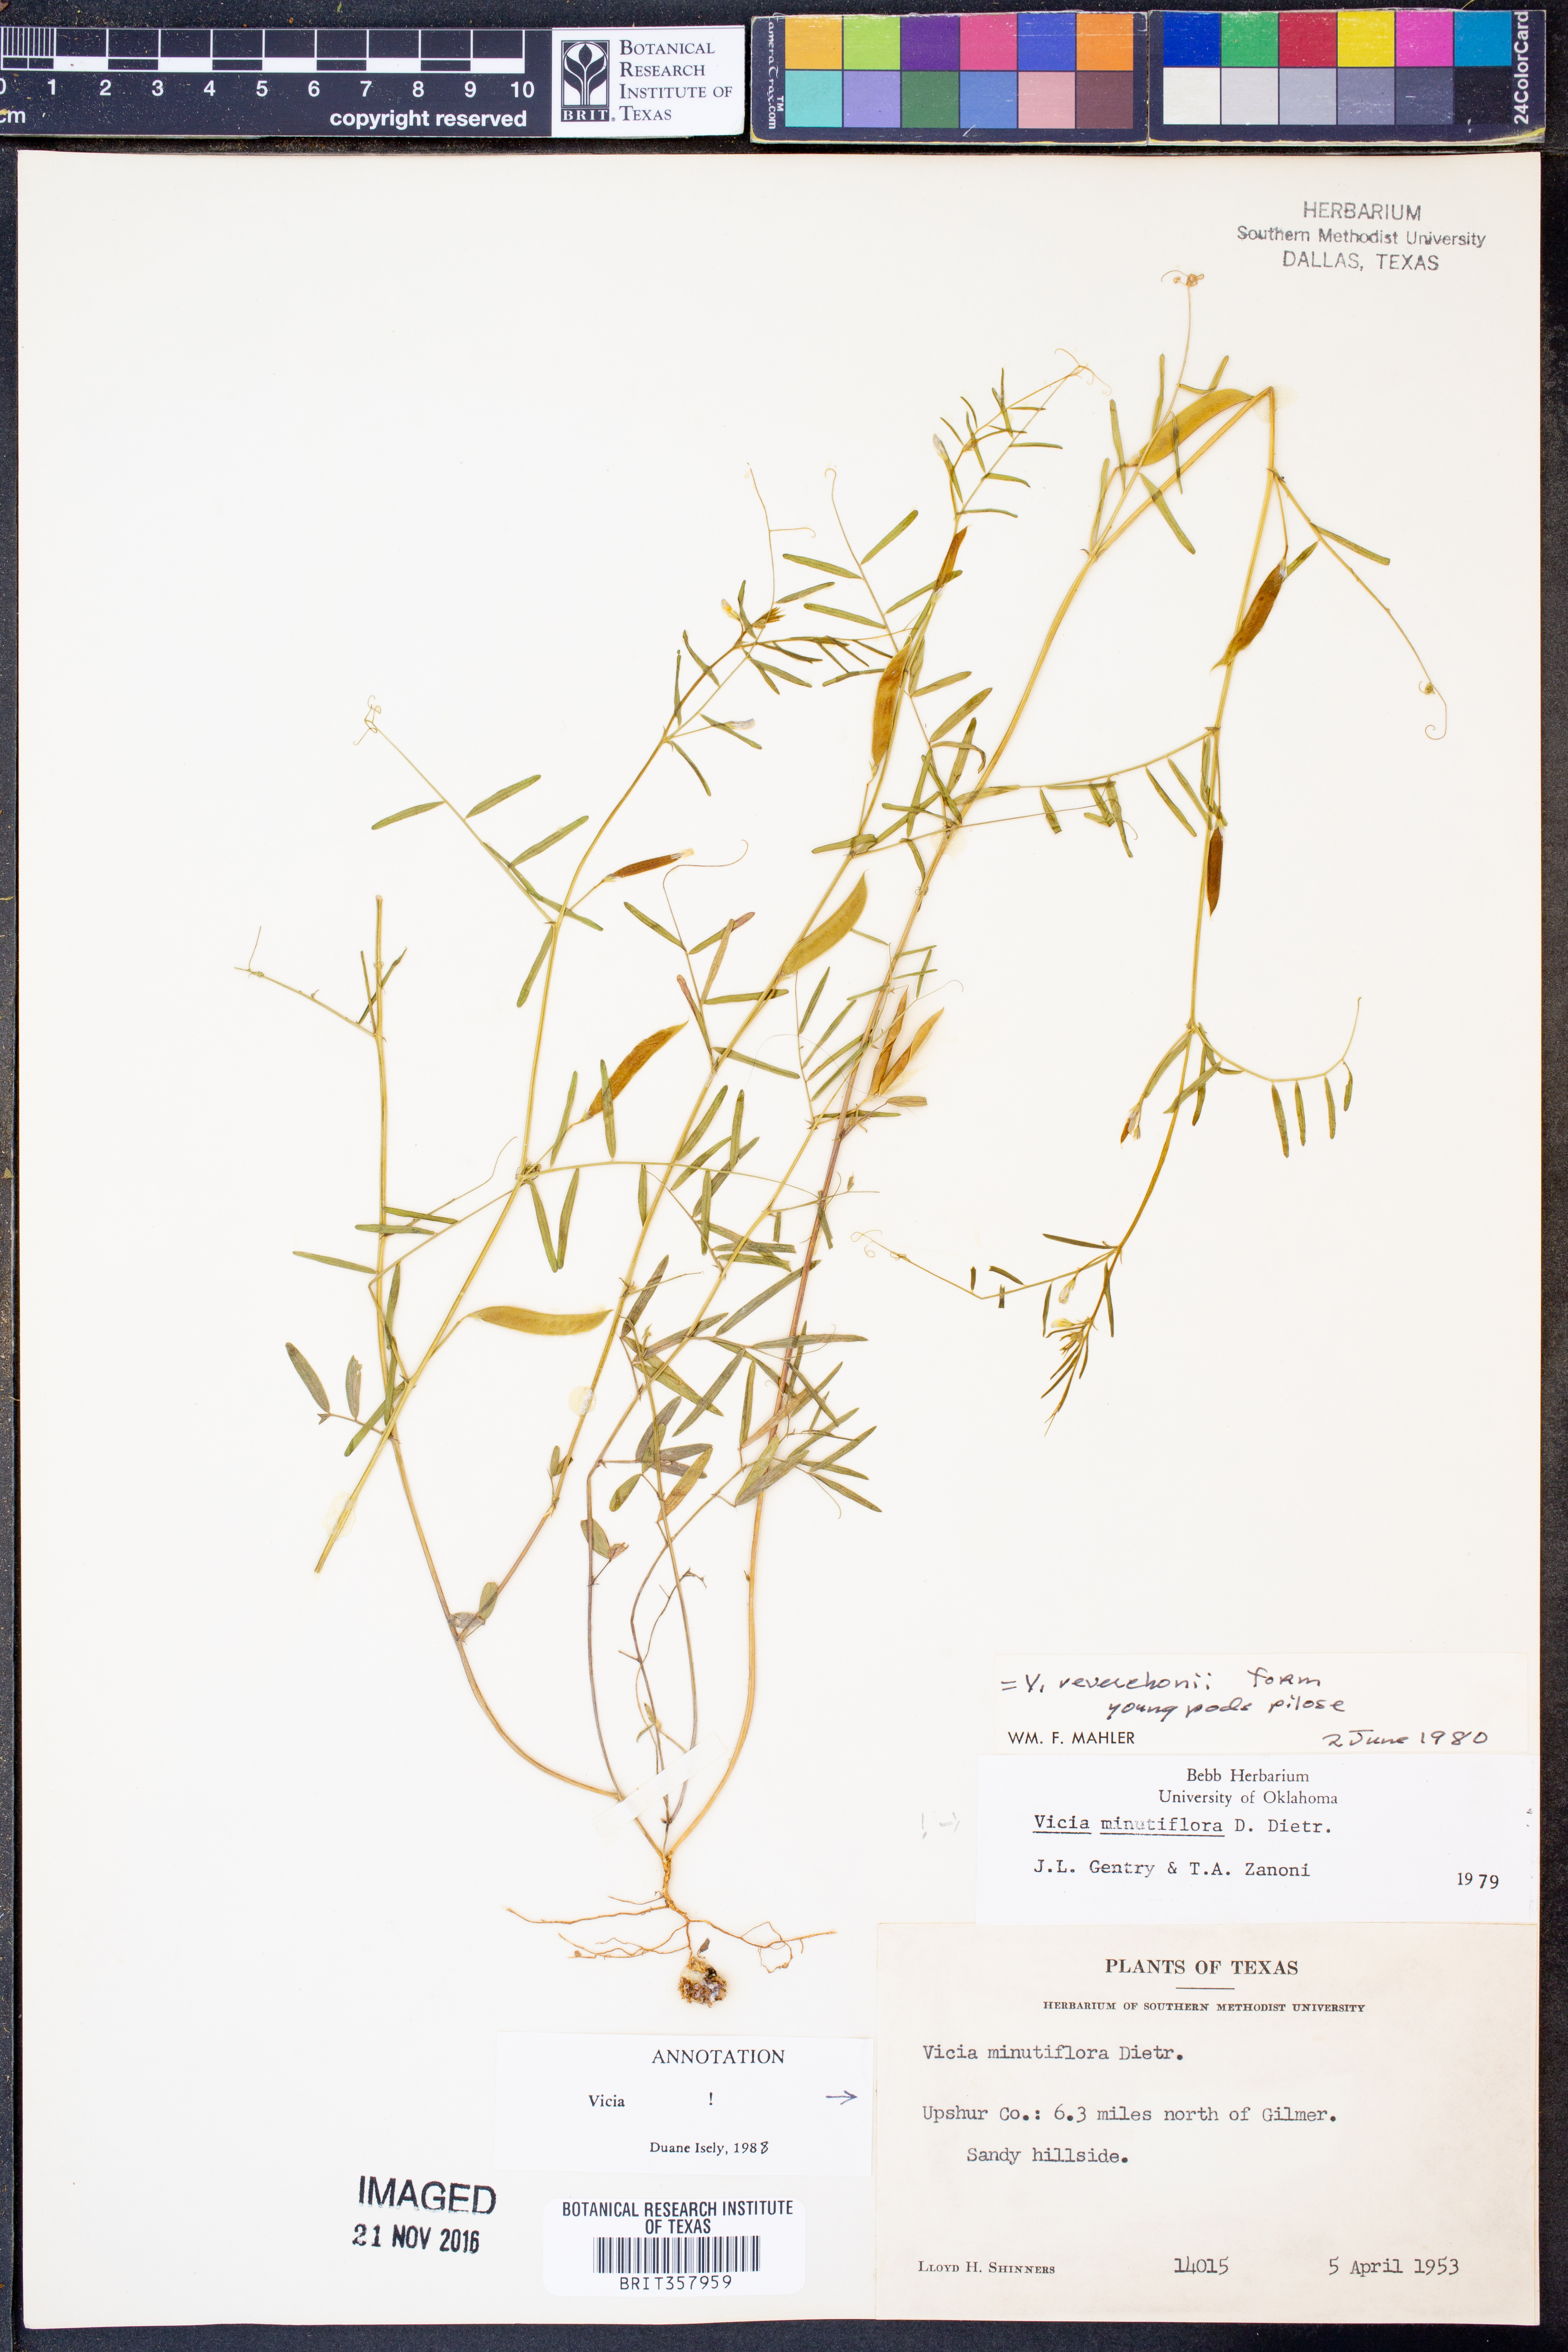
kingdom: Plantae
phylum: Tracheophyta
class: Magnoliopsida
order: Fabales
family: Fabaceae
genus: Vicia
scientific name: Vicia minutiflora
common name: Pygmy-flower vetch
